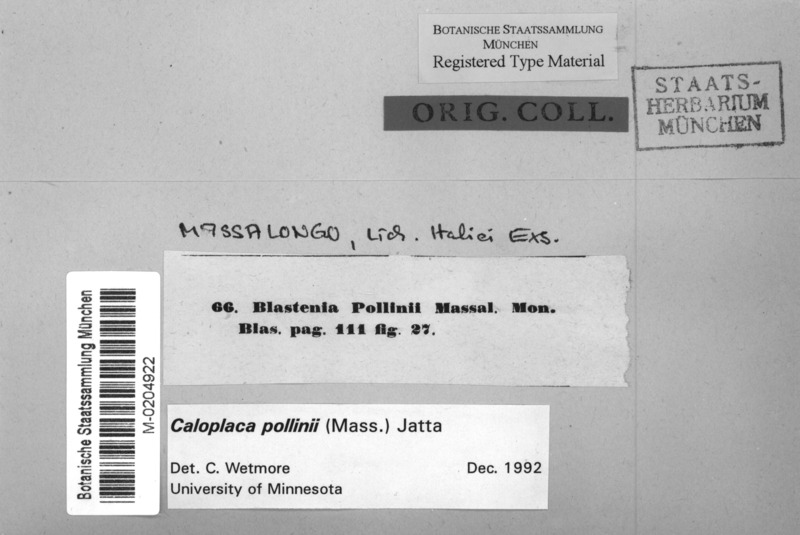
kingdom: Fungi
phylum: Ascomycota
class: Lecanoromycetes
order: Teloschistales
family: Teloschistaceae
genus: Huneckia
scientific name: Huneckia pollinii
